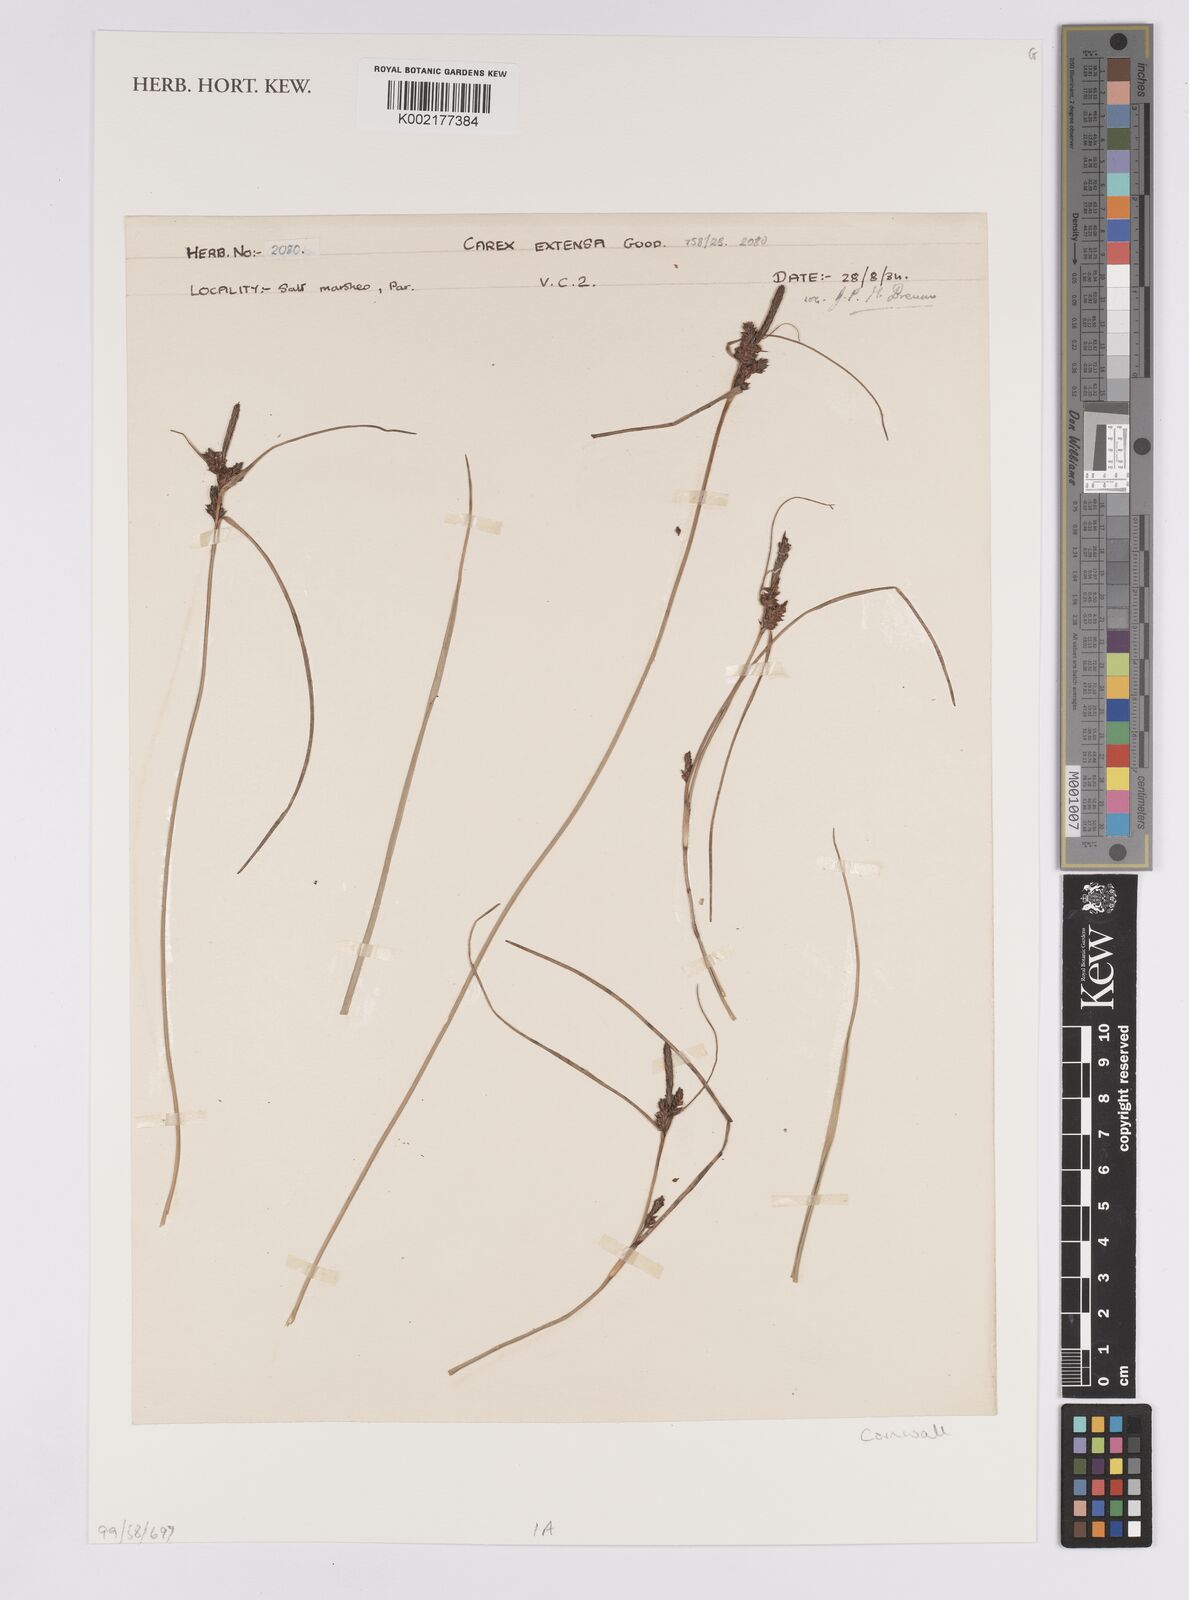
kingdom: Plantae
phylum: Tracheophyta
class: Liliopsida
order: Poales
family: Cyperaceae
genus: Carex
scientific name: Carex extensa
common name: Long-bracted sedge
